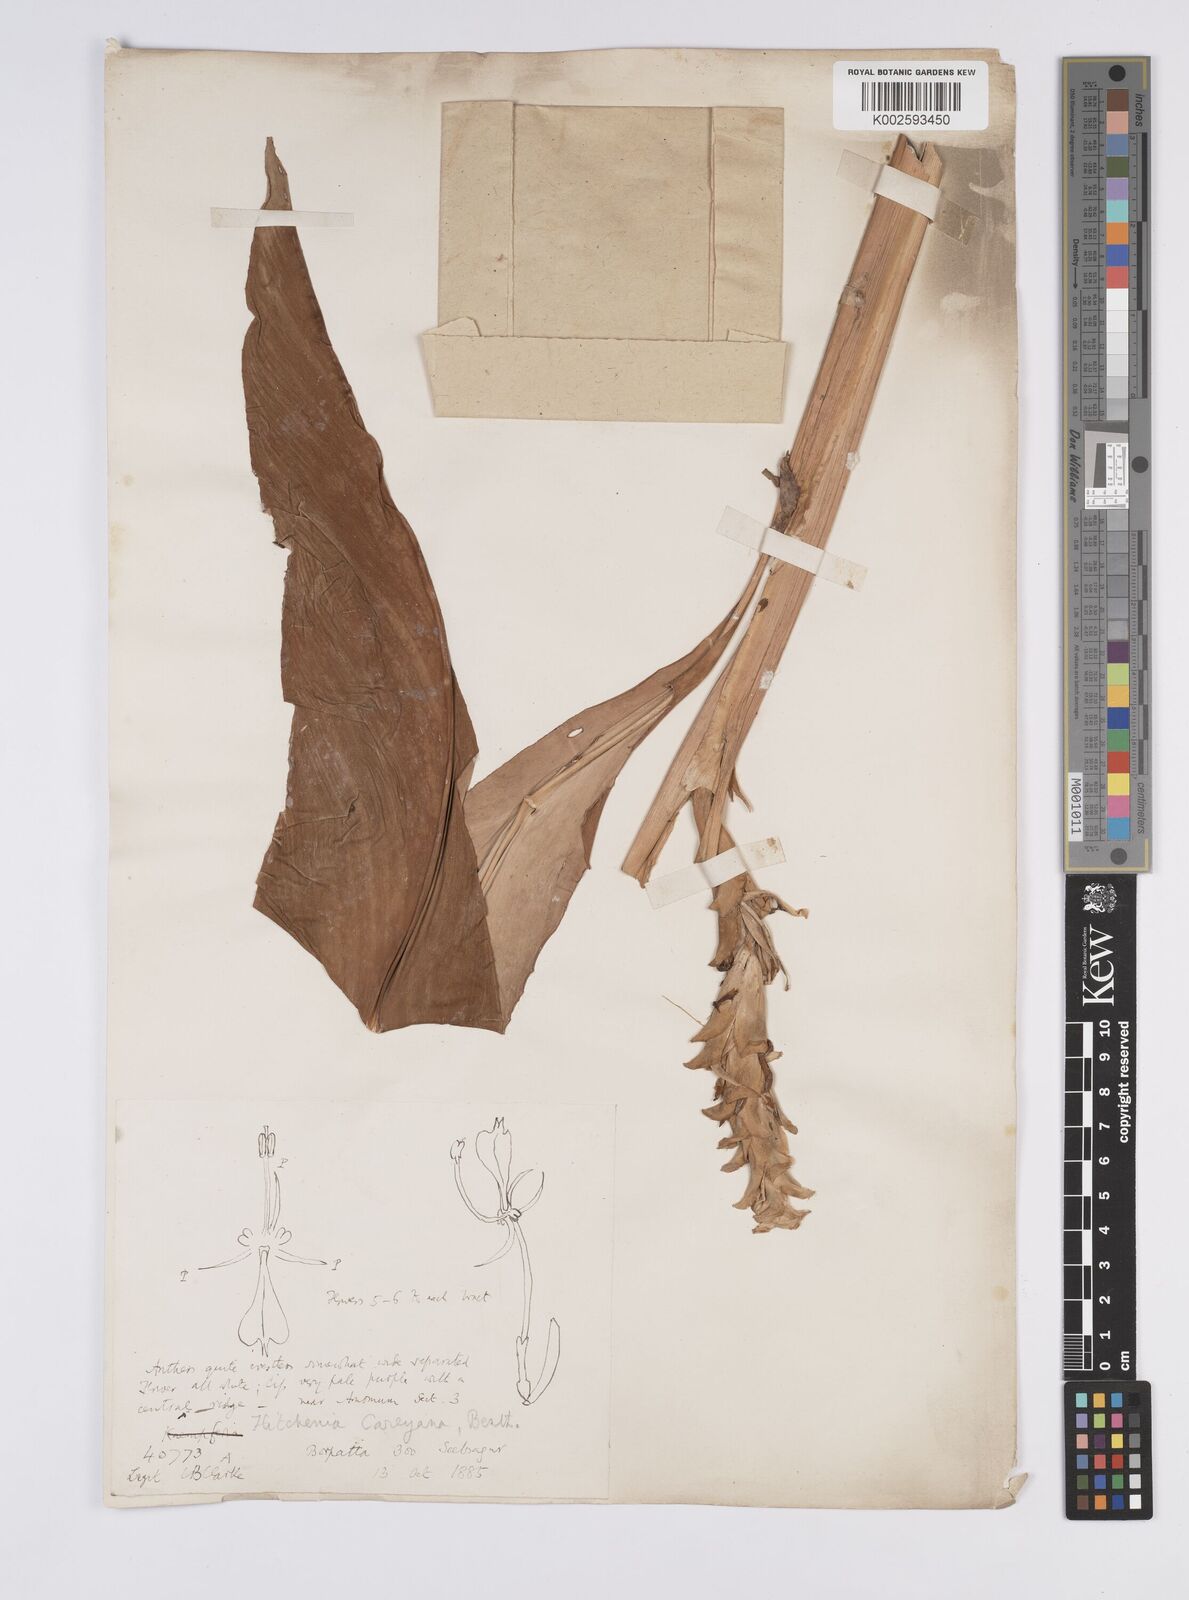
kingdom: Plantae
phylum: Tracheophyta
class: Liliopsida
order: Zingiberales
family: Zingiberaceae
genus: Larsenianthus
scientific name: Larsenianthus careyanus
